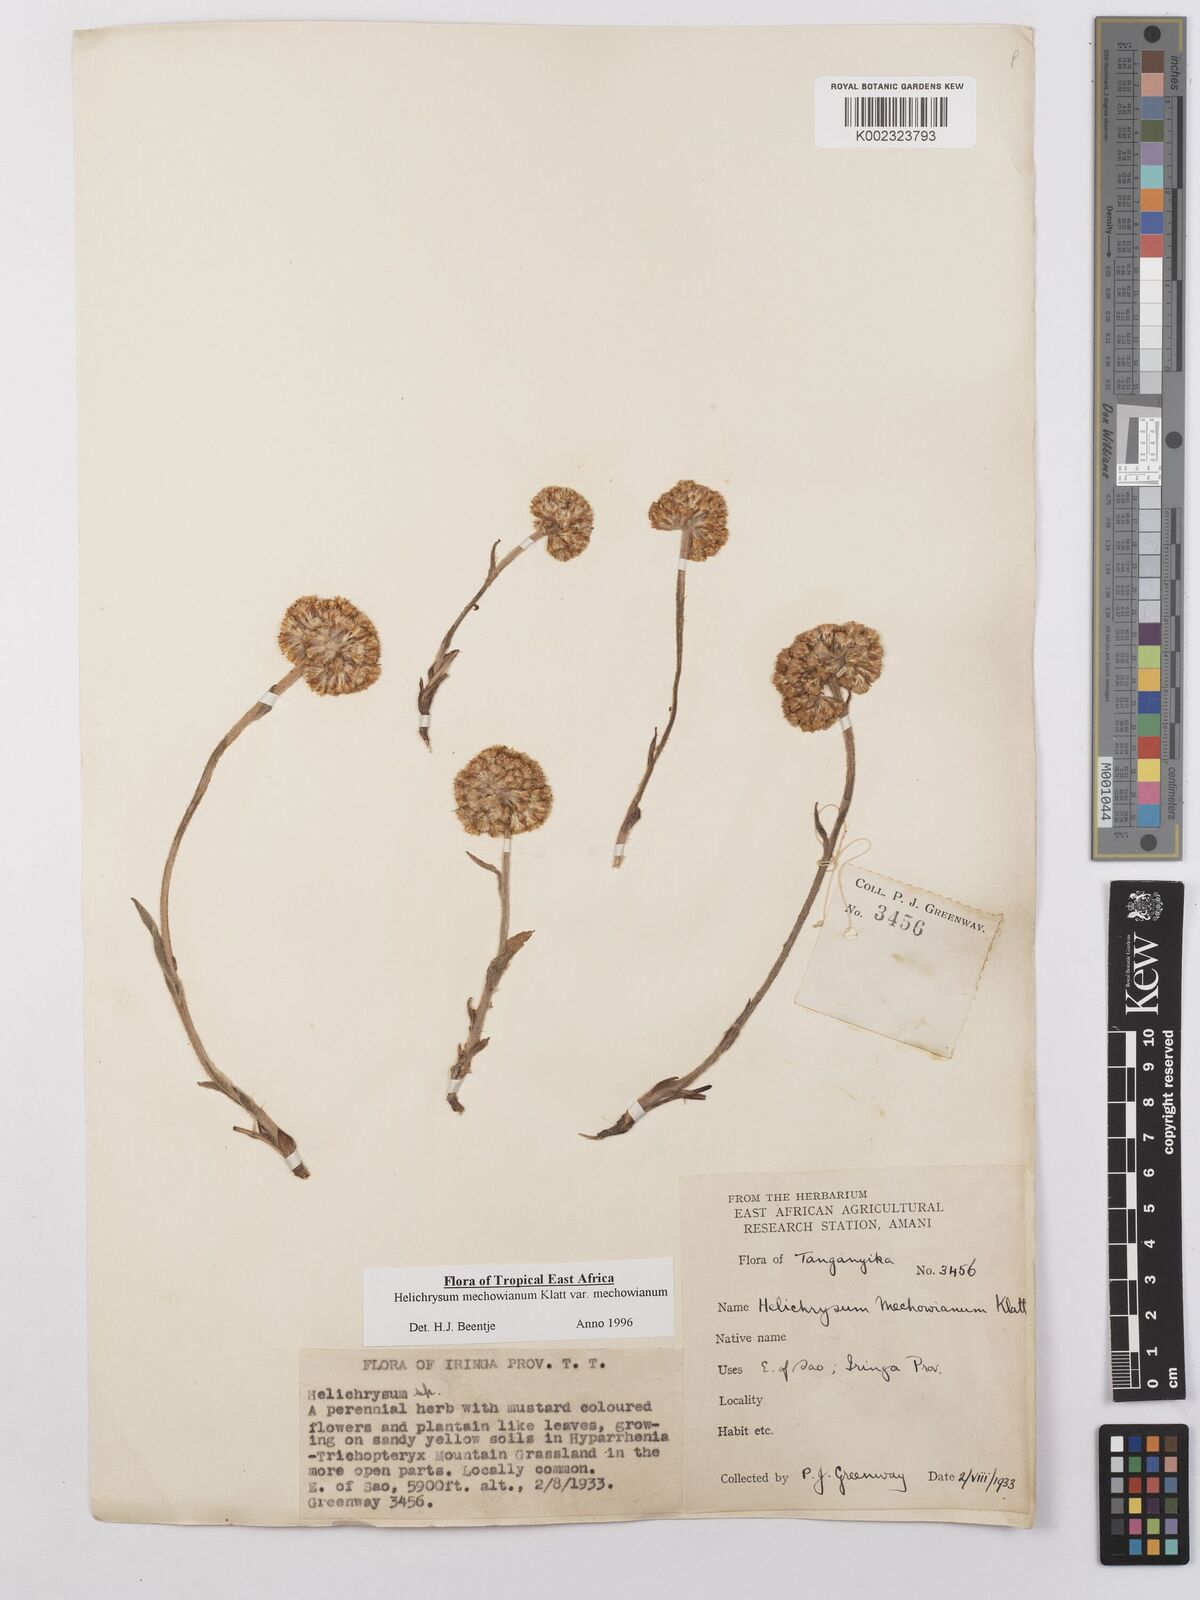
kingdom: Plantae
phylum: Tracheophyta
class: Magnoliopsida
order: Asterales
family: Asteraceae
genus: Helichrysum
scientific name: Helichrysum mechowianum
